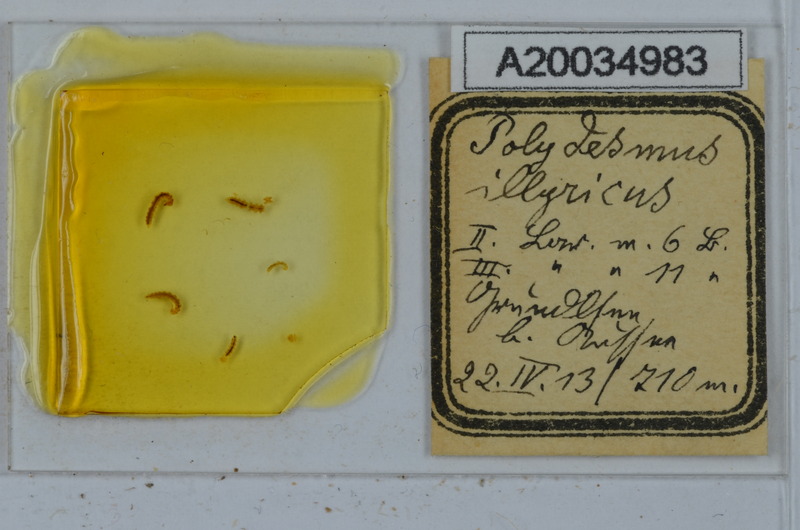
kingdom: Animalia
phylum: Arthropoda
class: Diplopoda
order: Polydesmida
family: Polydesmidae
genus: Polydesmus
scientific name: Polydesmus complanatus
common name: Flat-backed millipede
